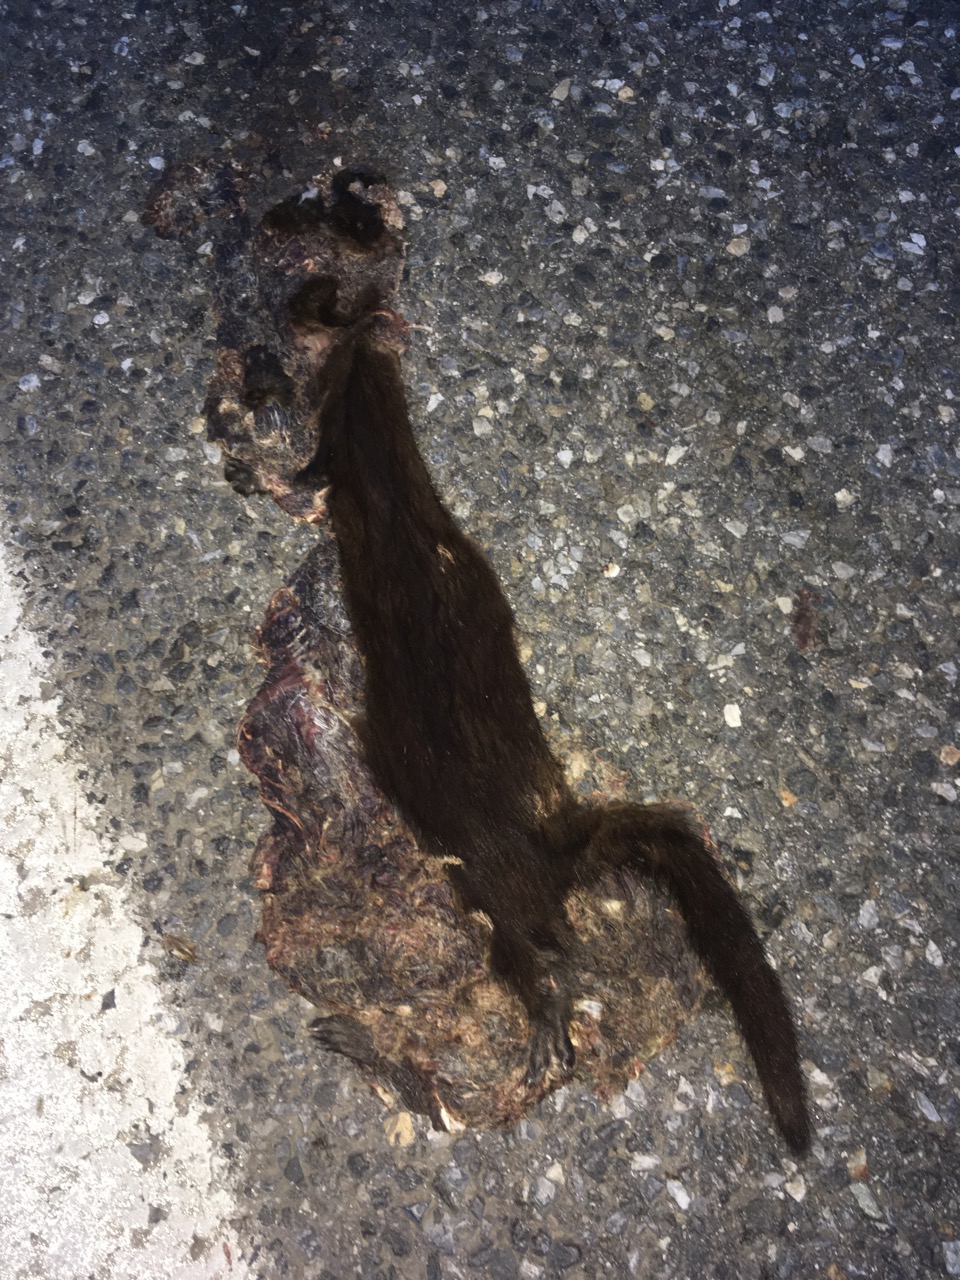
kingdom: Animalia
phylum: Chordata
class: Mammalia
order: Carnivora
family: Mustelidae
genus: Mustela
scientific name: Mustela vison
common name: American mink
